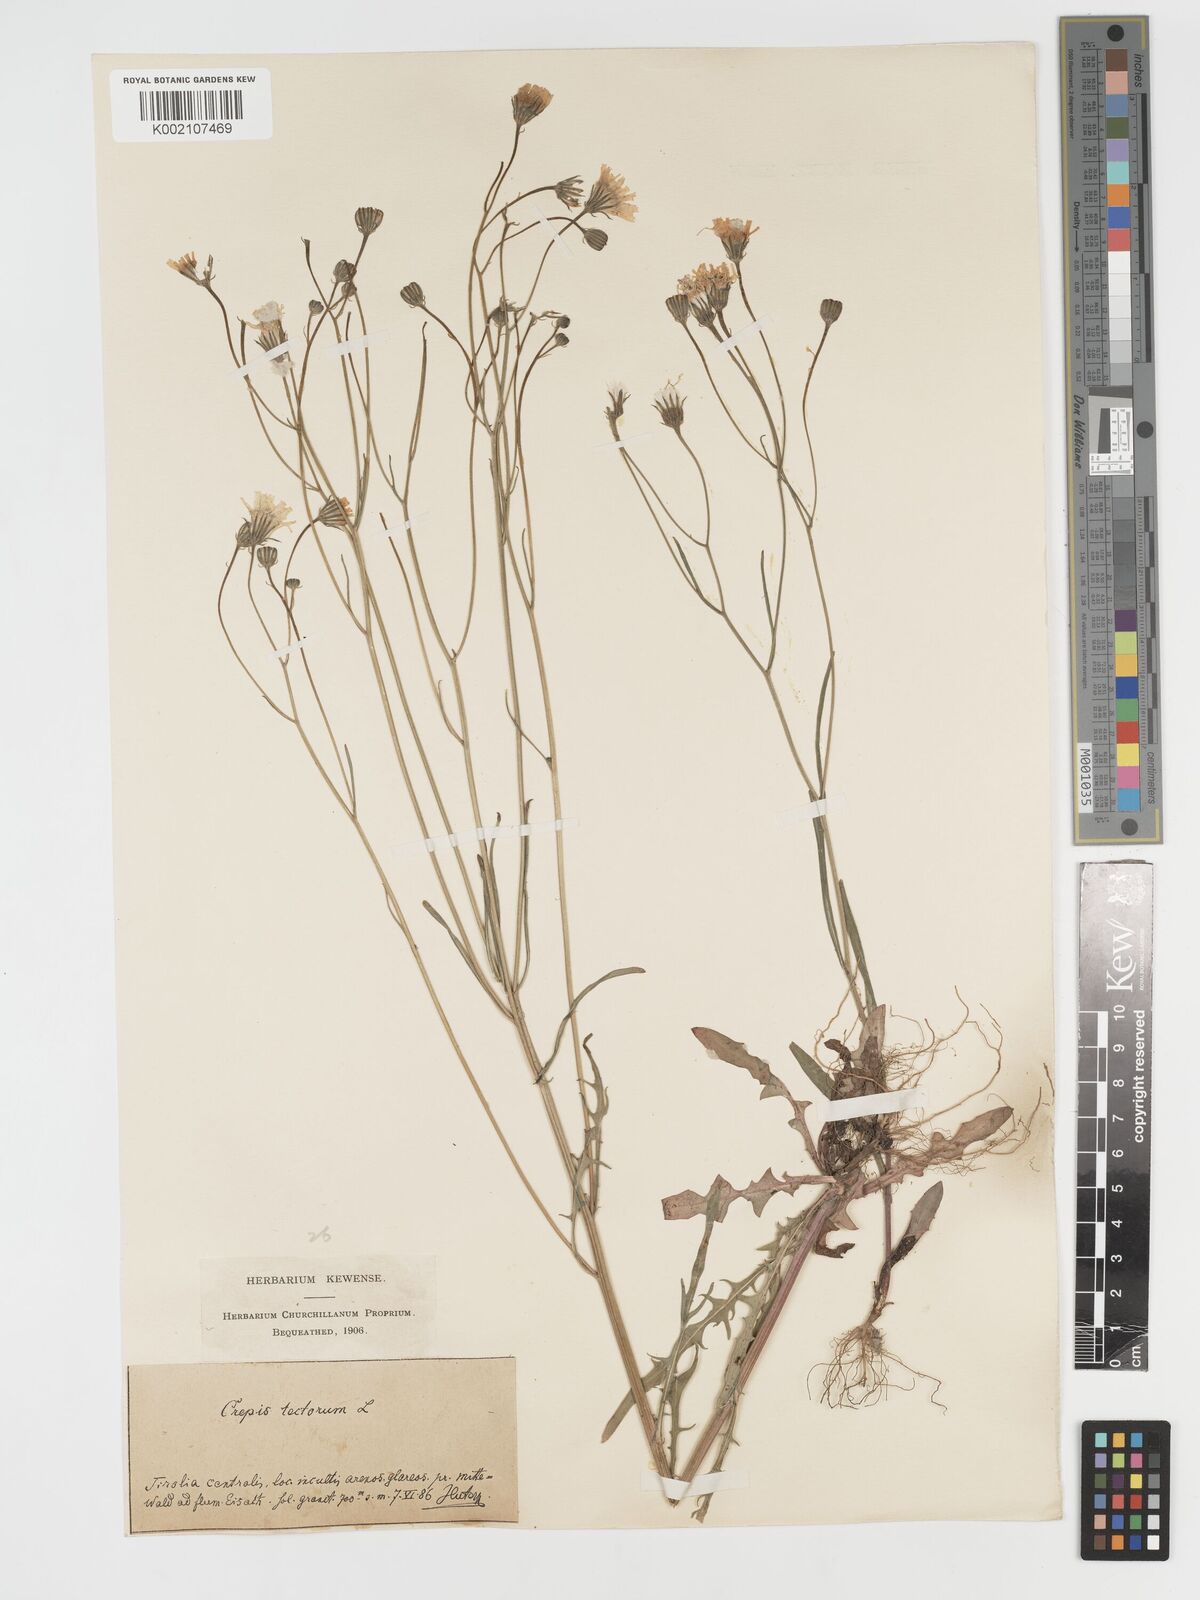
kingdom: Plantae
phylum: Tracheophyta
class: Magnoliopsida
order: Asterales
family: Asteraceae
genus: Crepis
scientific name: Crepis tectorum
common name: Narrow-leaved hawk's-beard
